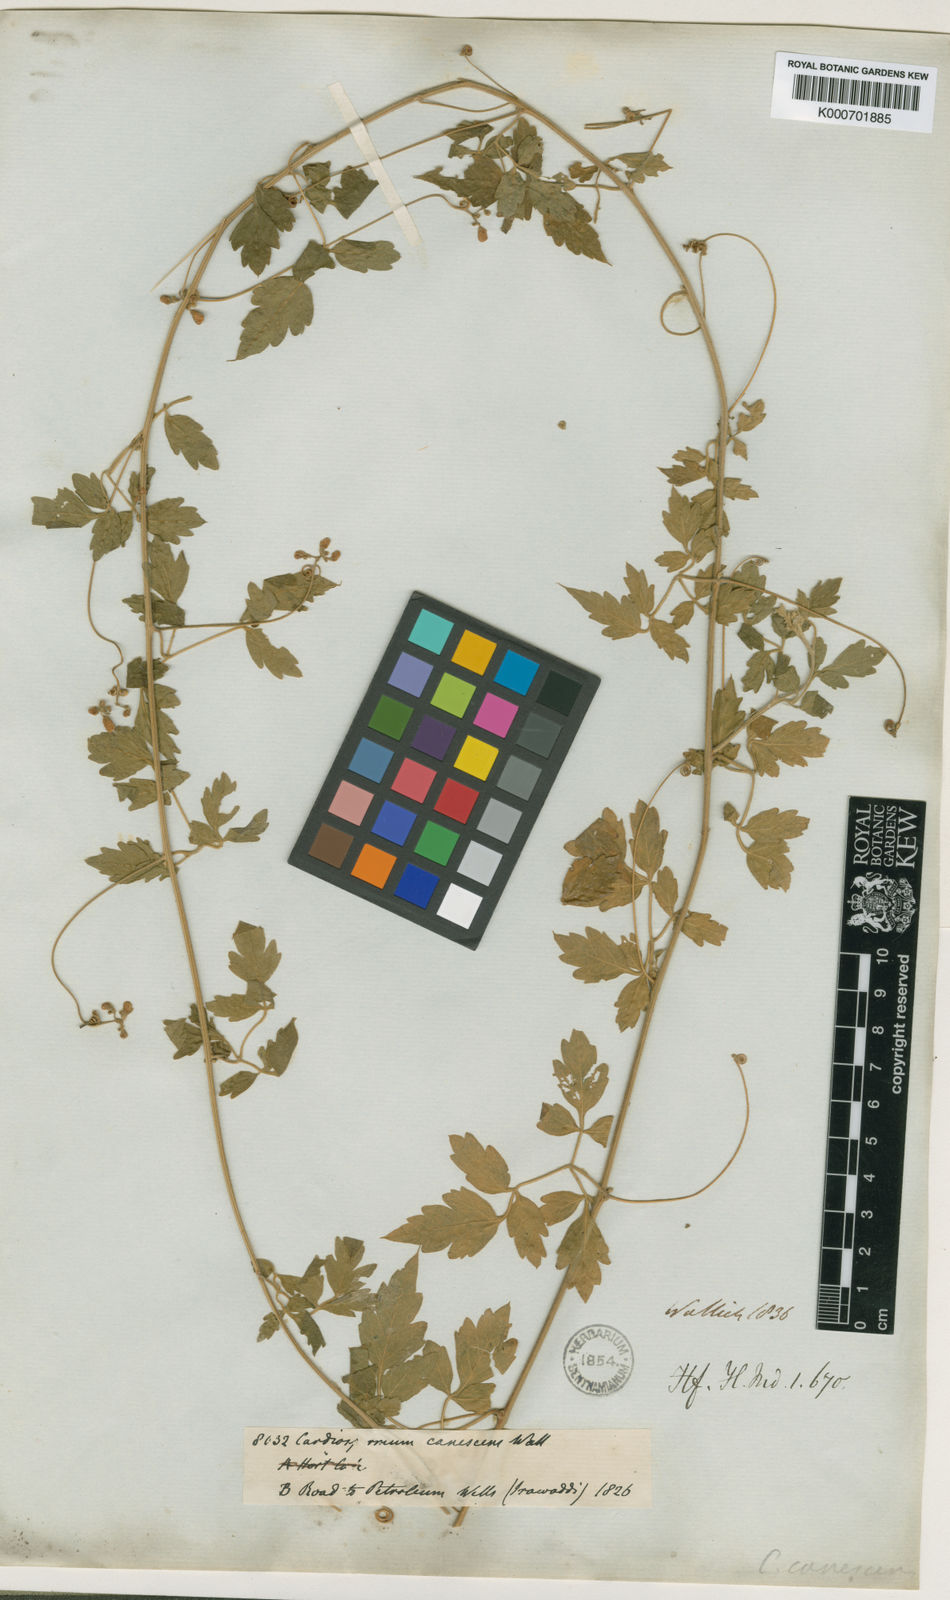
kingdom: Plantae
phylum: Tracheophyta
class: Magnoliopsida
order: Sapindales
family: Sapindaceae
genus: Cardiospermum
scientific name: Cardiospermum corindum
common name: Faux persil
